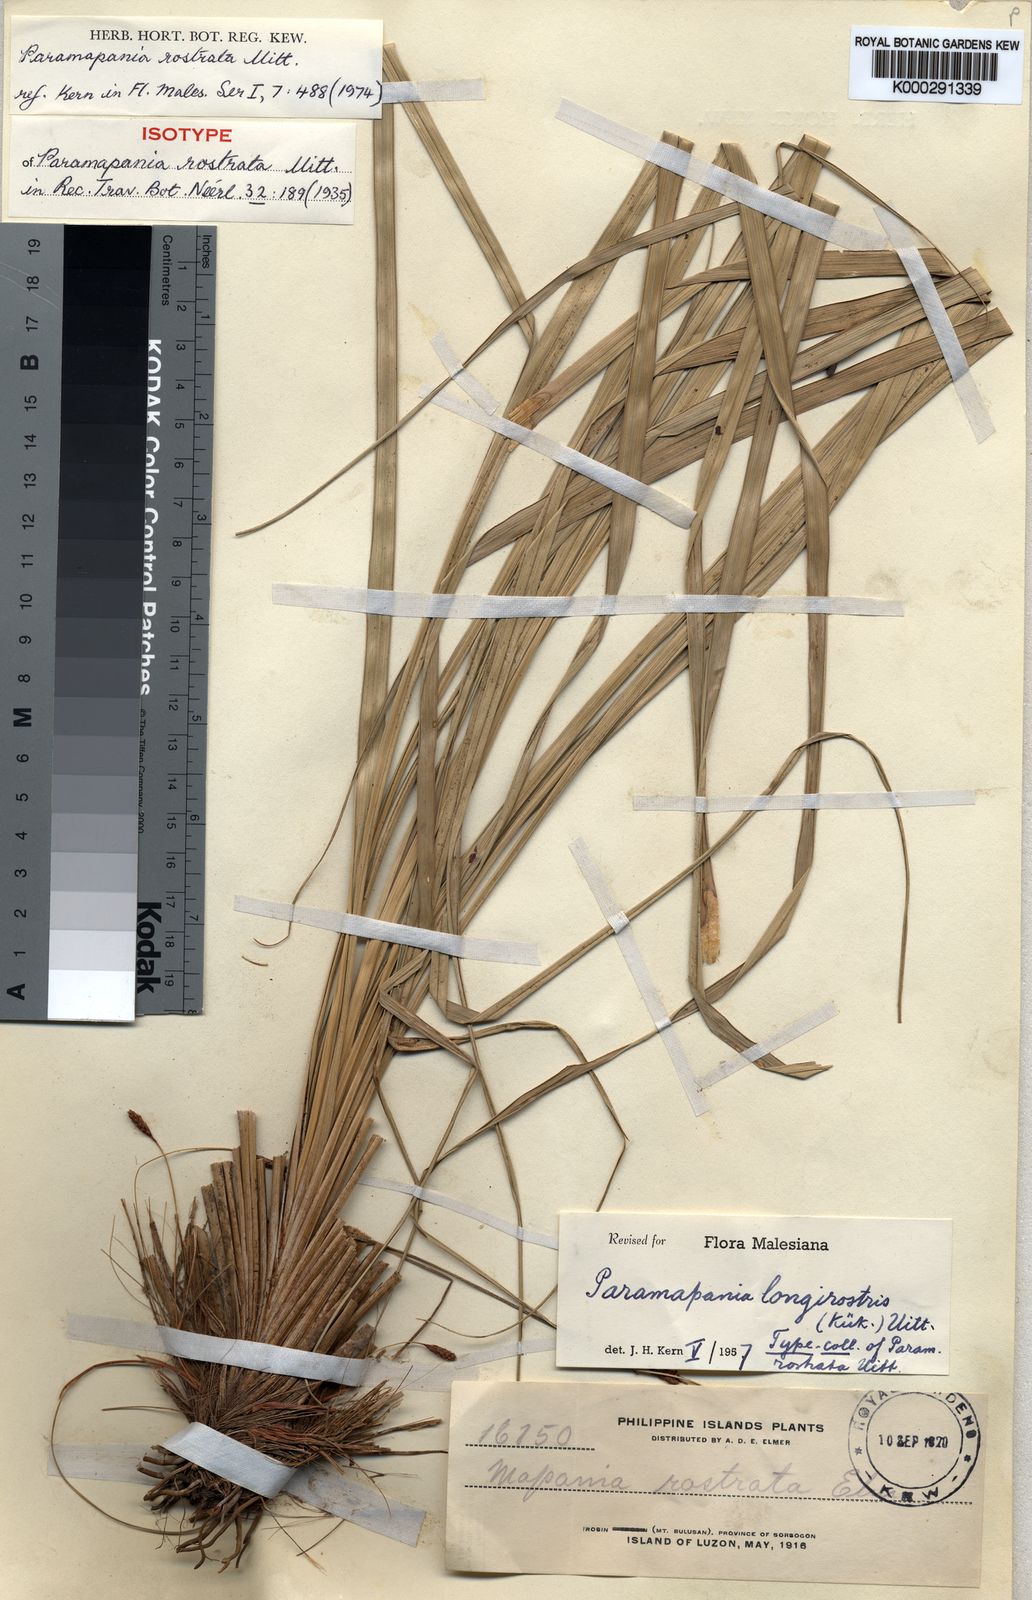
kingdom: Plantae
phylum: Tracheophyta
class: Liliopsida
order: Poales
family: Cyperaceae
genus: Paramapania
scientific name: Paramapania rostrata
